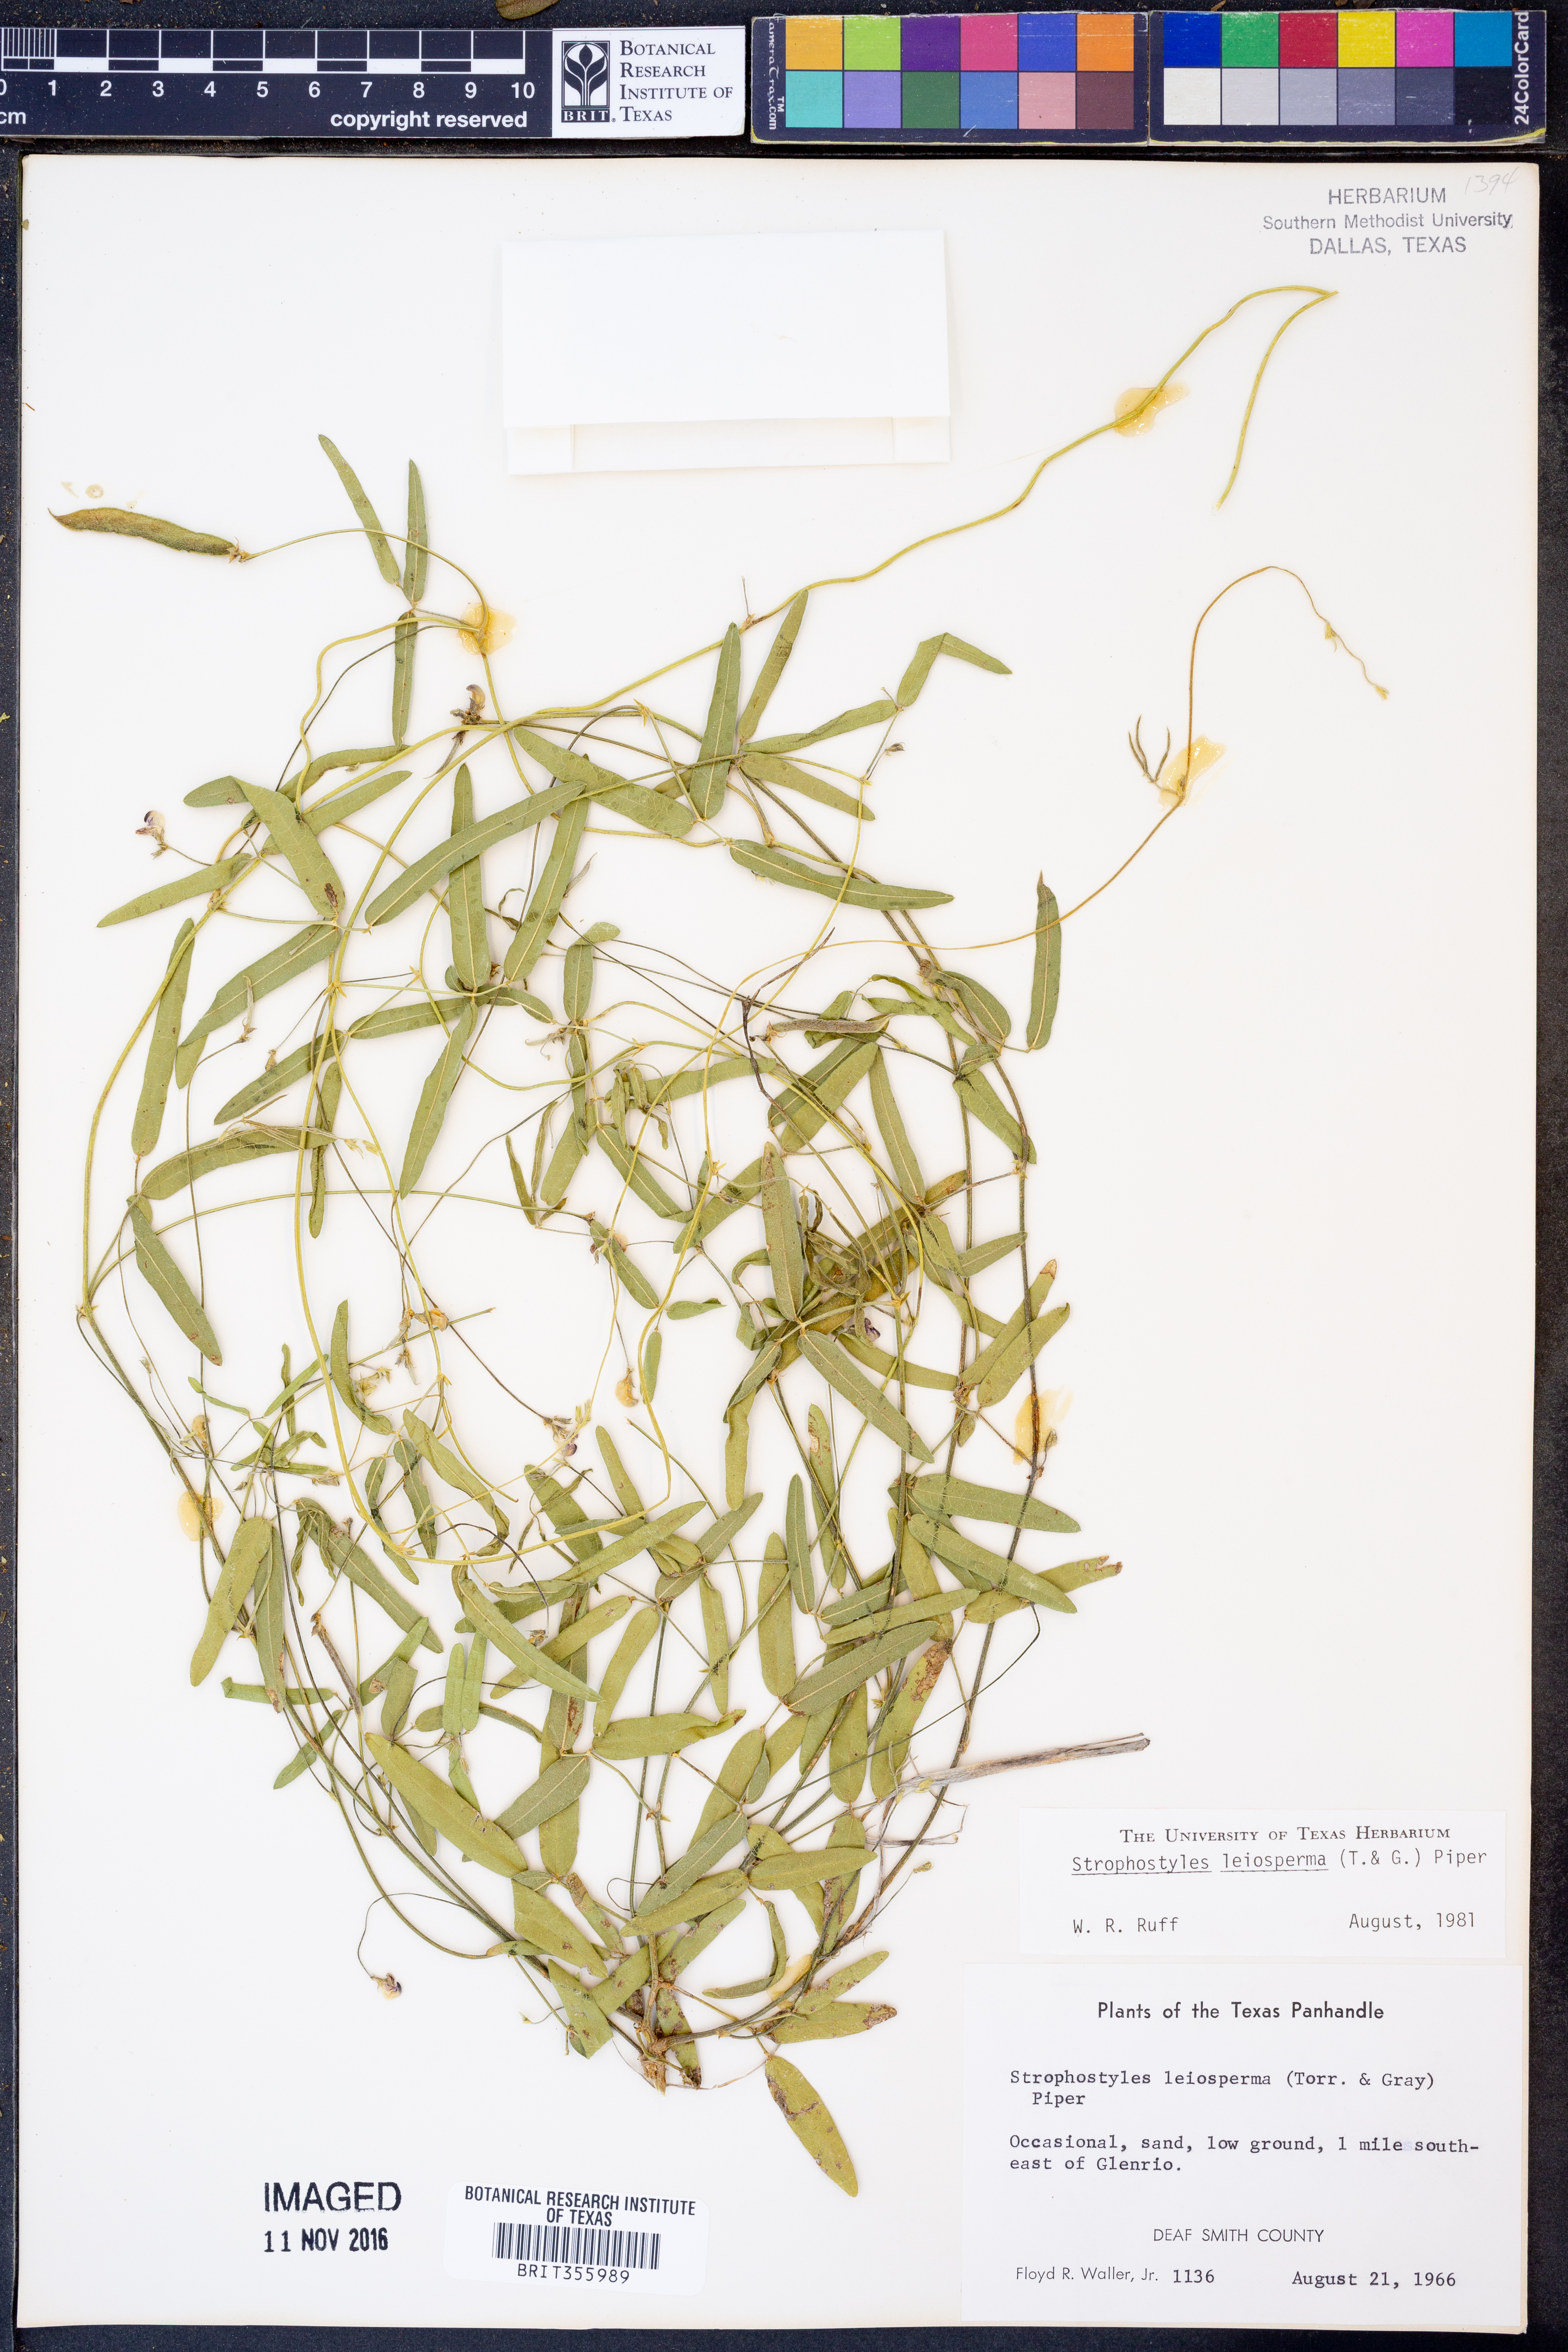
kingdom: Plantae
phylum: Tracheophyta
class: Magnoliopsida
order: Fabales
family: Fabaceae
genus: Strophostyles
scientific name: Strophostyles leiosperma
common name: Smooth-seed wild bean
